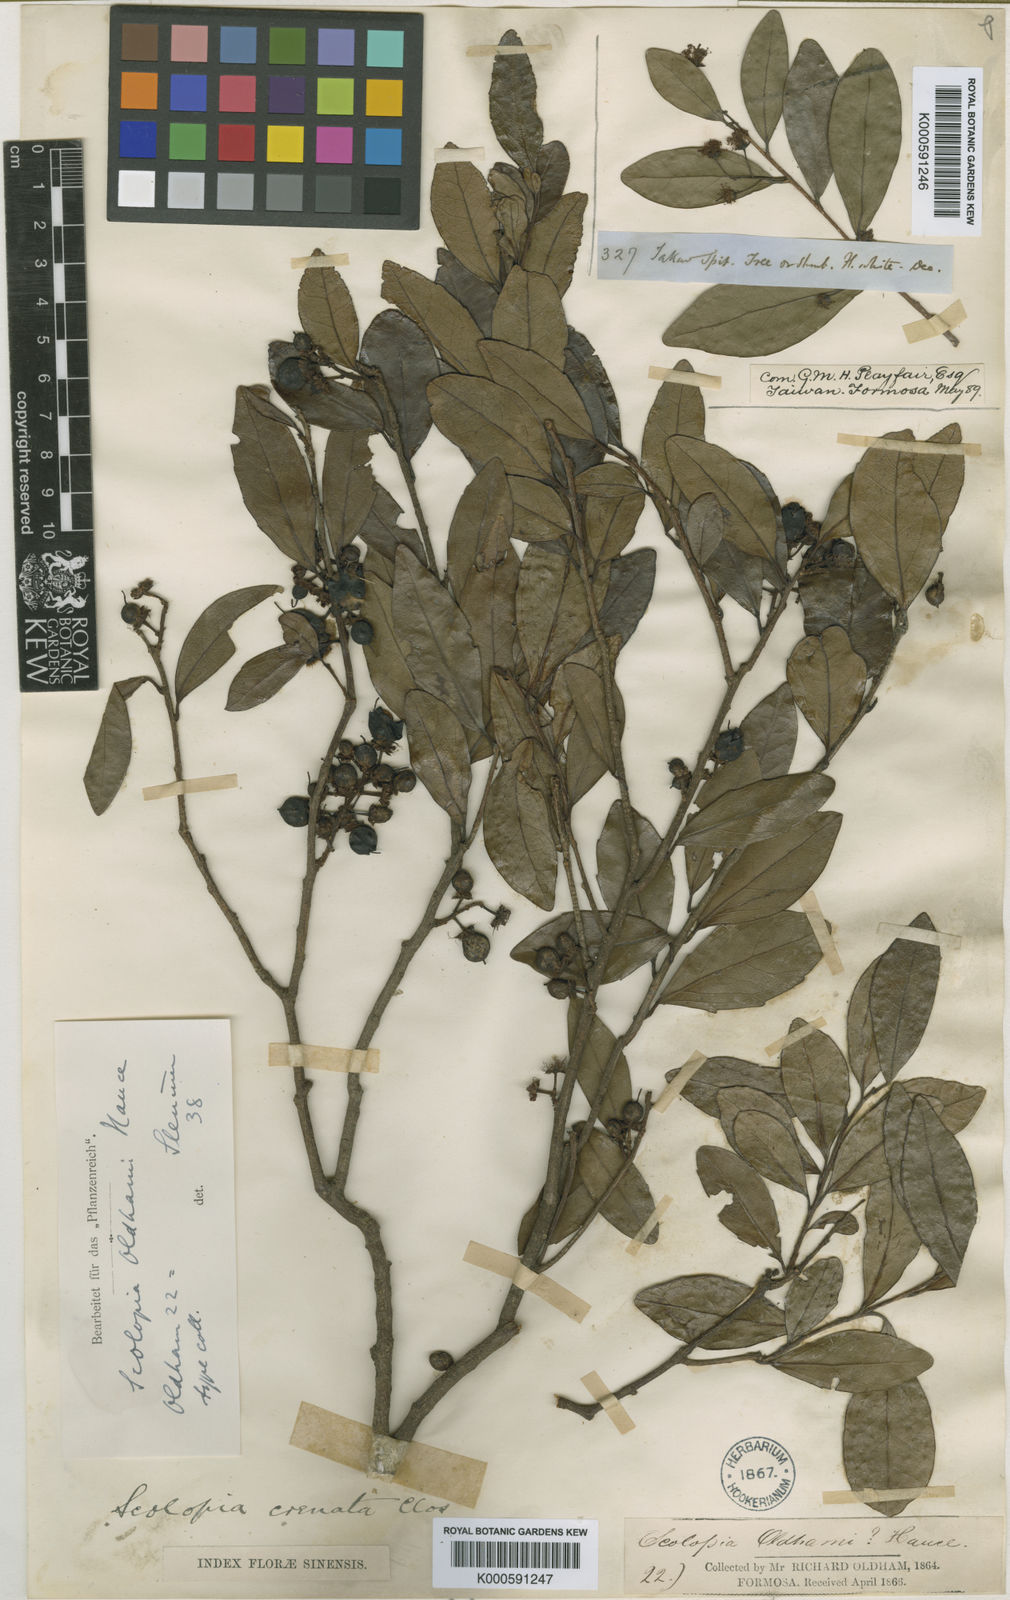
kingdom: Plantae
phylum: Tracheophyta
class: Magnoliopsida
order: Malpighiales
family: Salicaceae
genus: Scolopia
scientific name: Scolopia oldhamii
